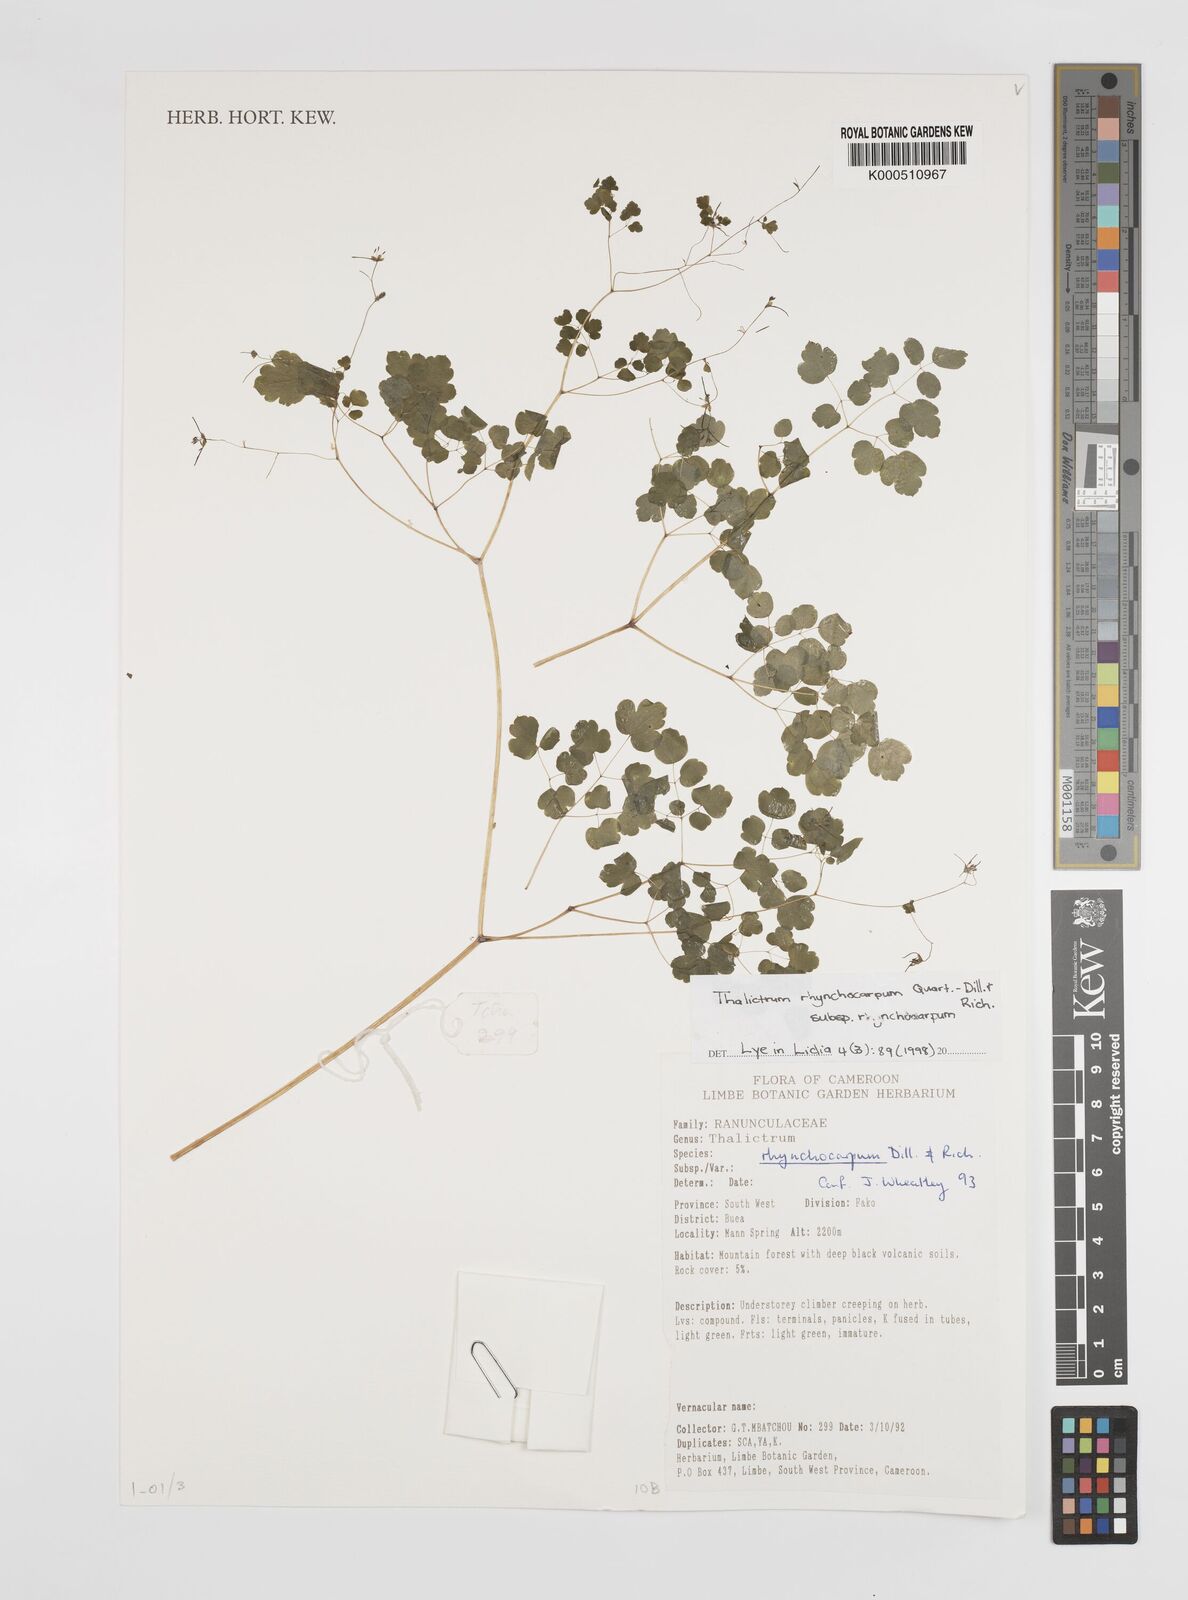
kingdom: Plantae
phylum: Tracheophyta
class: Magnoliopsida
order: Ranunculales
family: Ranunculaceae
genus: Thalictrum
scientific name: Thalictrum rhynchocarpum
